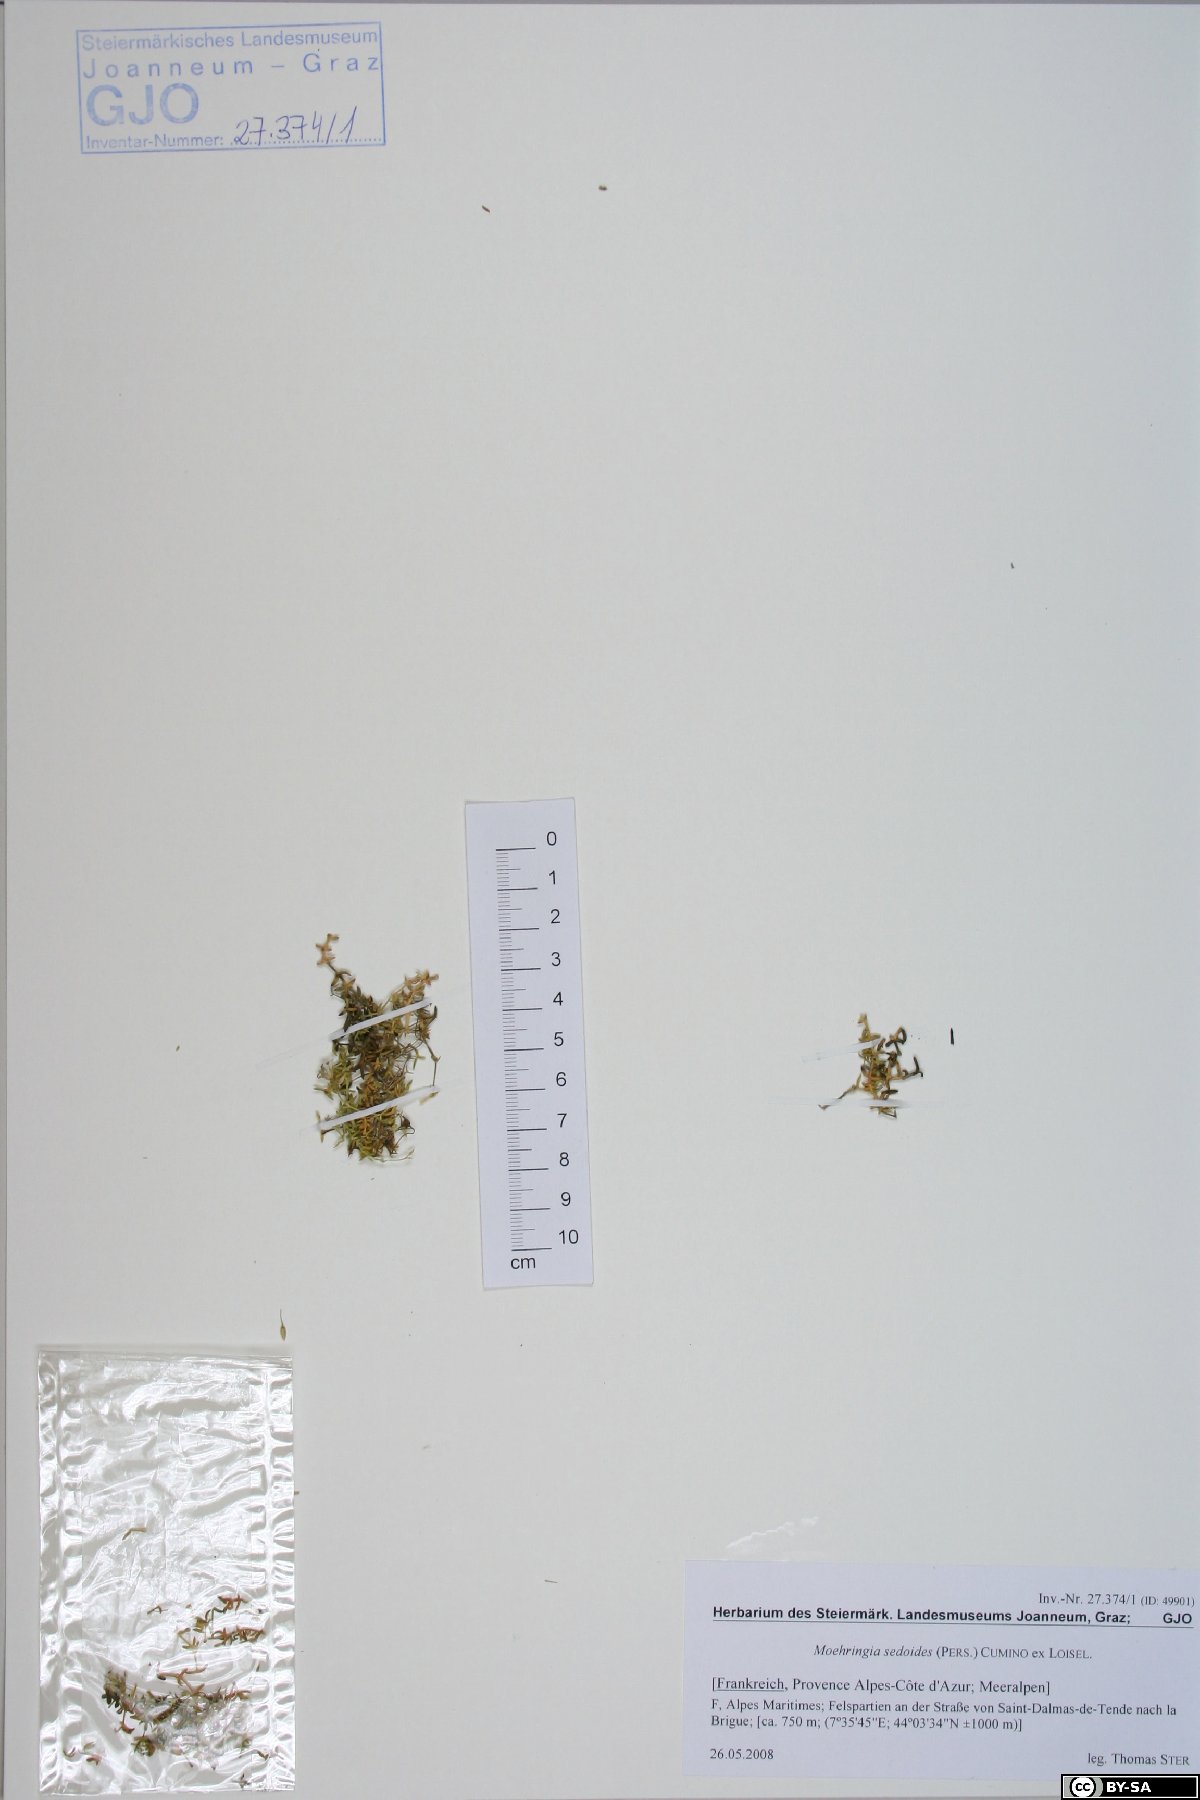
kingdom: Plantae
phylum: Tracheophyta
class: Magnoliopsida
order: Caryophyllales
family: Caryophyllaceae
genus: Moehringia
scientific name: Moehringia sedoides
